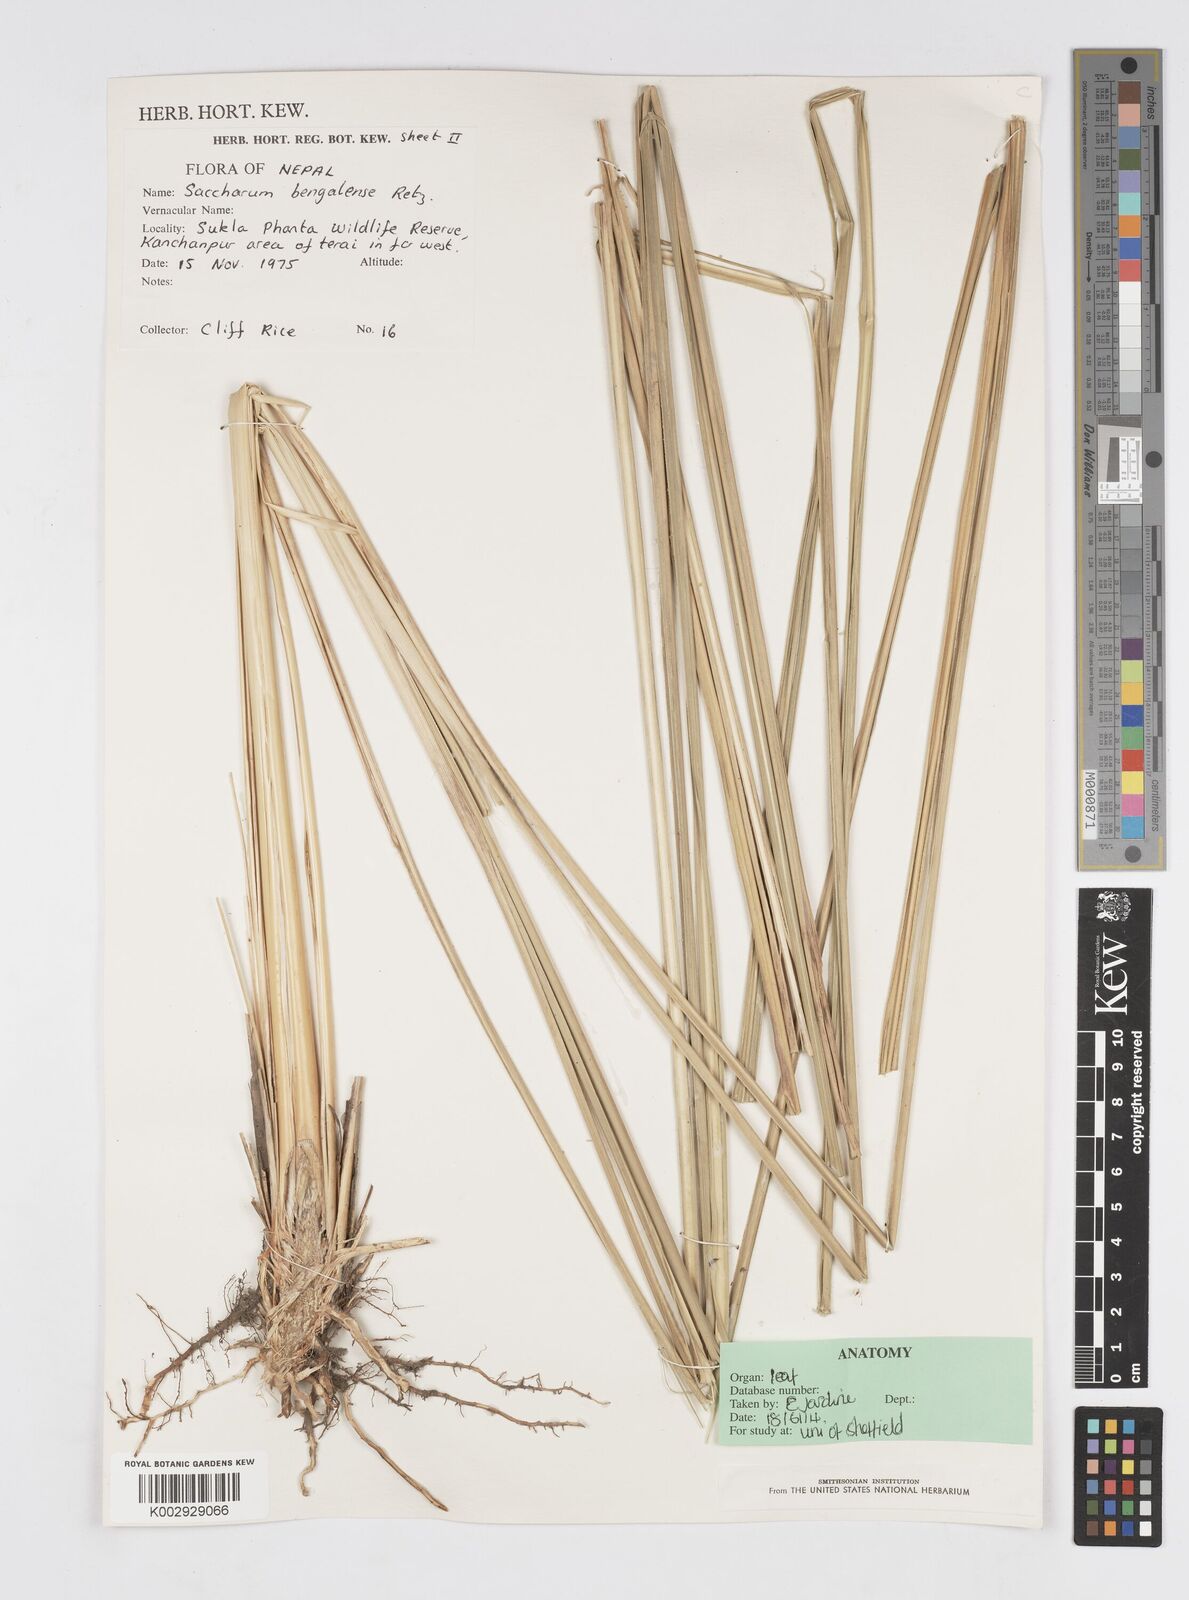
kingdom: Plantae
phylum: Tracheophyta
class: Liliopsida
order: Poales
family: Poaceae
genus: Tripidium
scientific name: Tripidium bengalense
